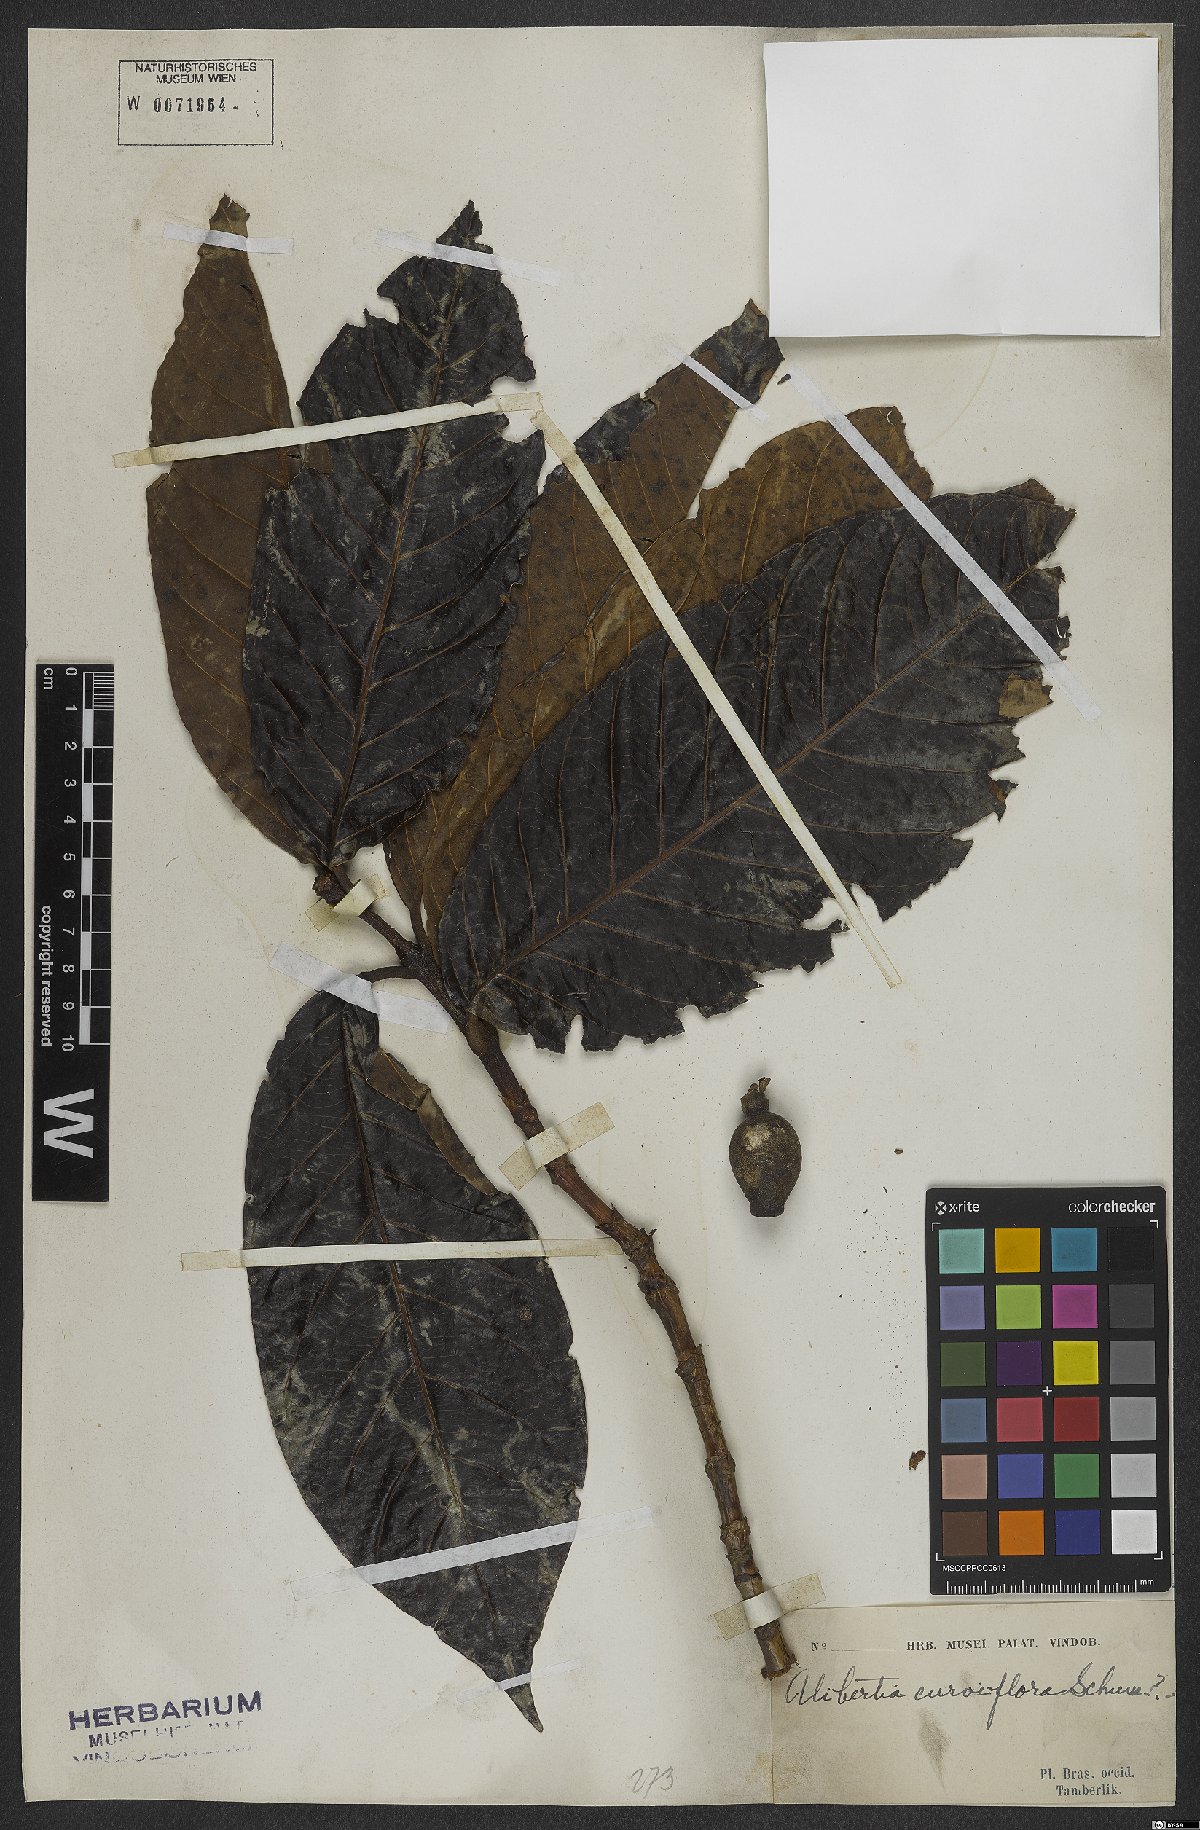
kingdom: Plantae
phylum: Tracheophyta
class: Magnoliopsida
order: Gentianales
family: Rubiaceae
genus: Alibertia
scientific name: Alibertia curviflora
